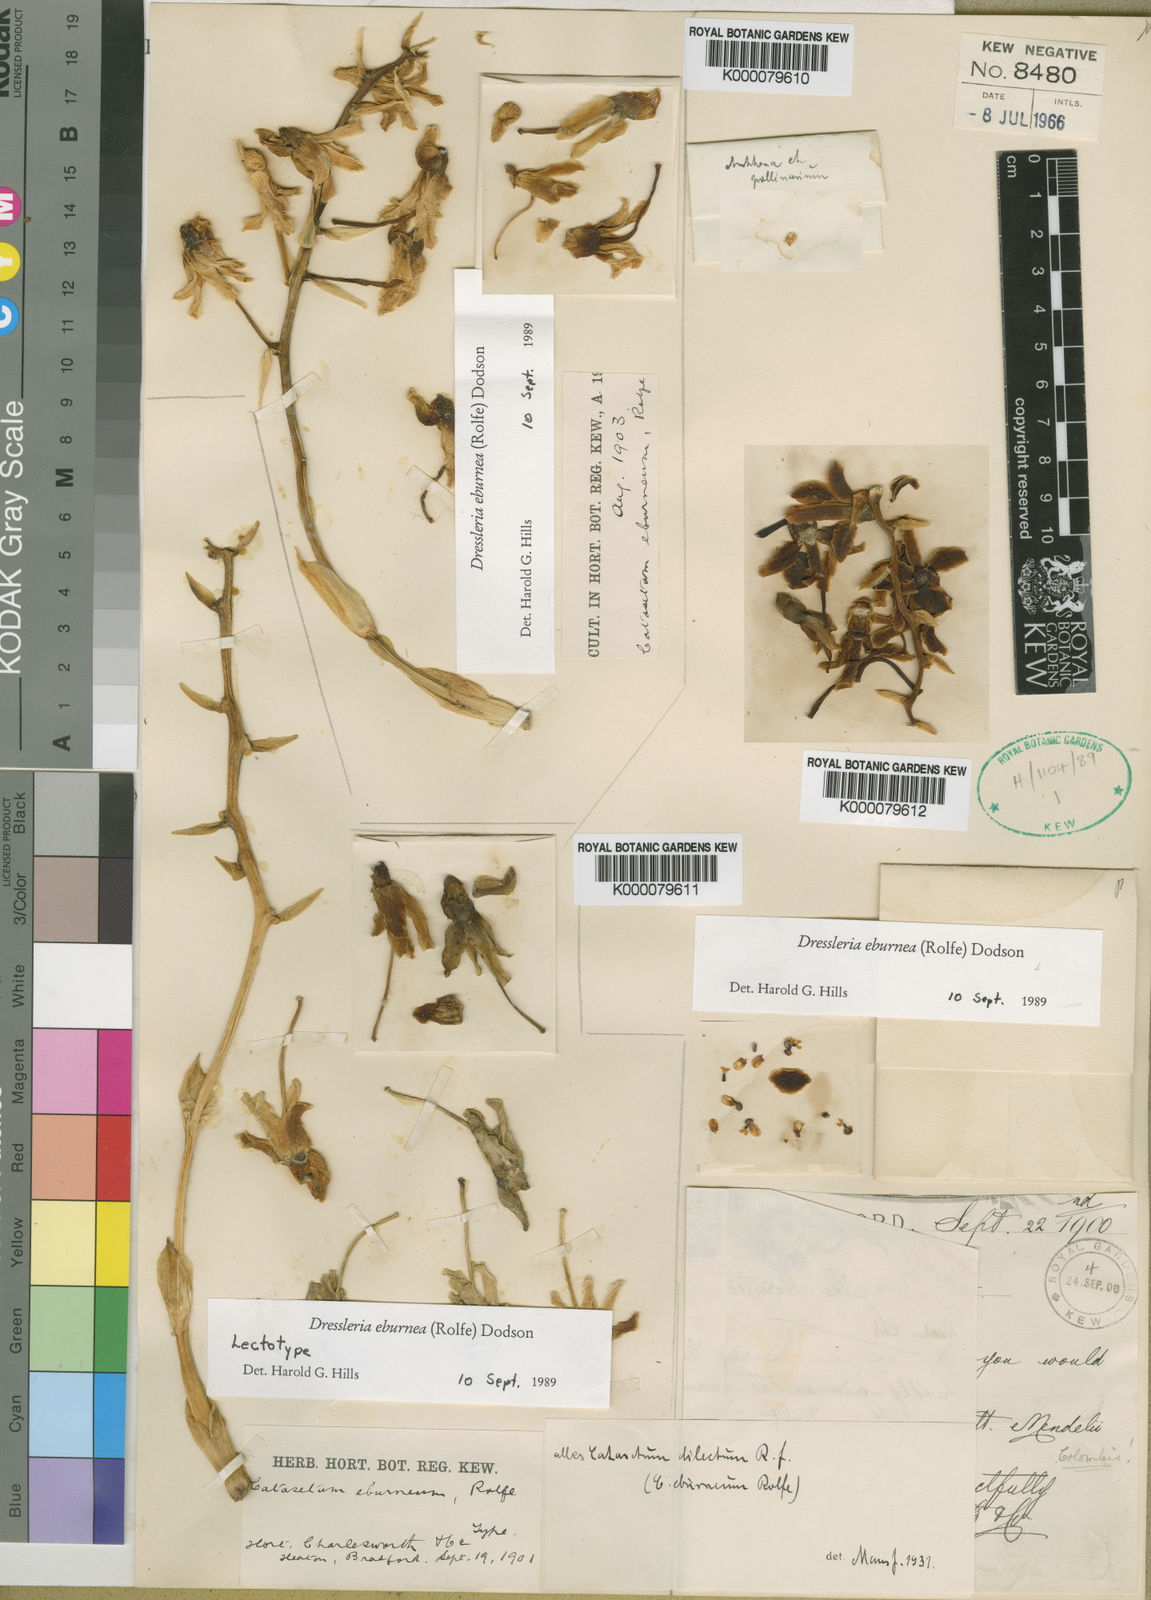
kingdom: Plantae
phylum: Tracheophyta
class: Liliopsida
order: Asparagales
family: Orchidaceae
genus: Dressleria
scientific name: Dressleria eburnea
